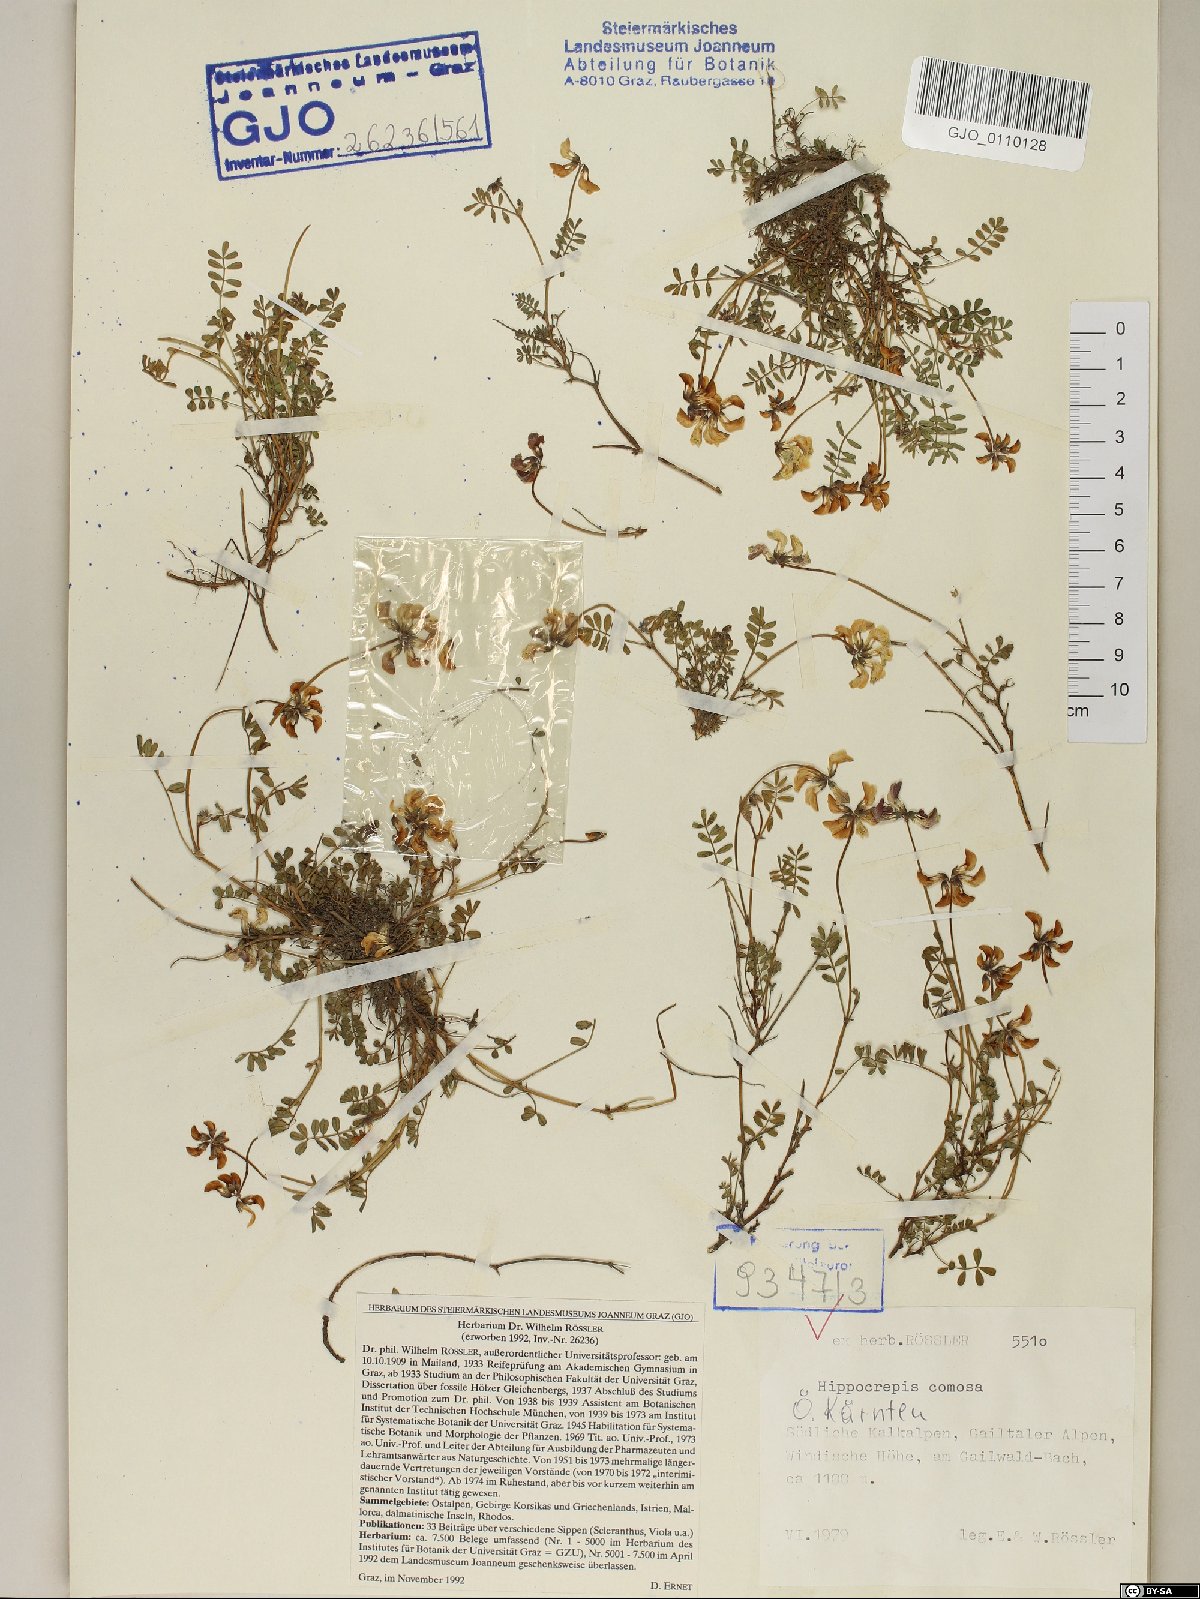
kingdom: Plantae
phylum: Tracheophyta
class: Magnoliopsida
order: Fabales
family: Fabaceae
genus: Hippocrepis
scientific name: Hippocrepis comosa
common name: Horseshoe vetch
